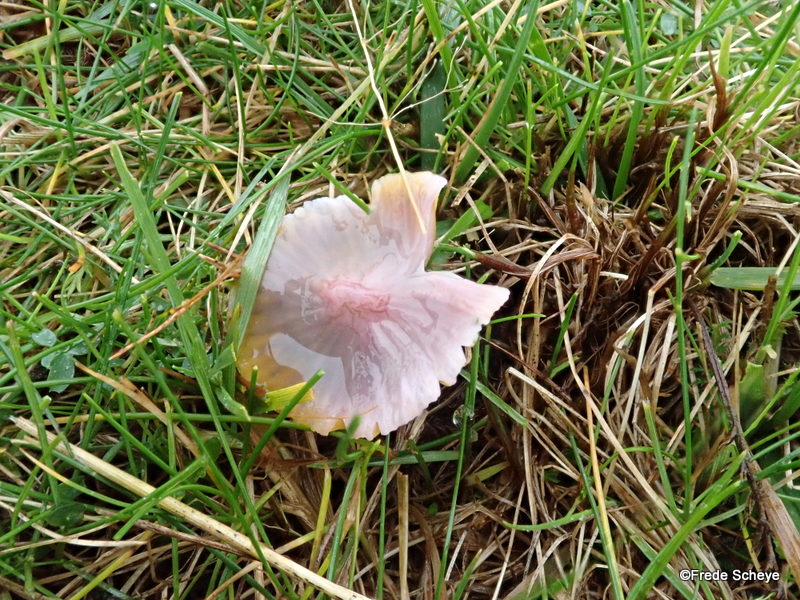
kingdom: Fungi
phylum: Basidiomycota
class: Agaricomycetes
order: Agaricales
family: Hygrophoraceae
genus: Gliophorus
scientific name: Gliophorus psittacinus
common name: papegøje-vokshat
